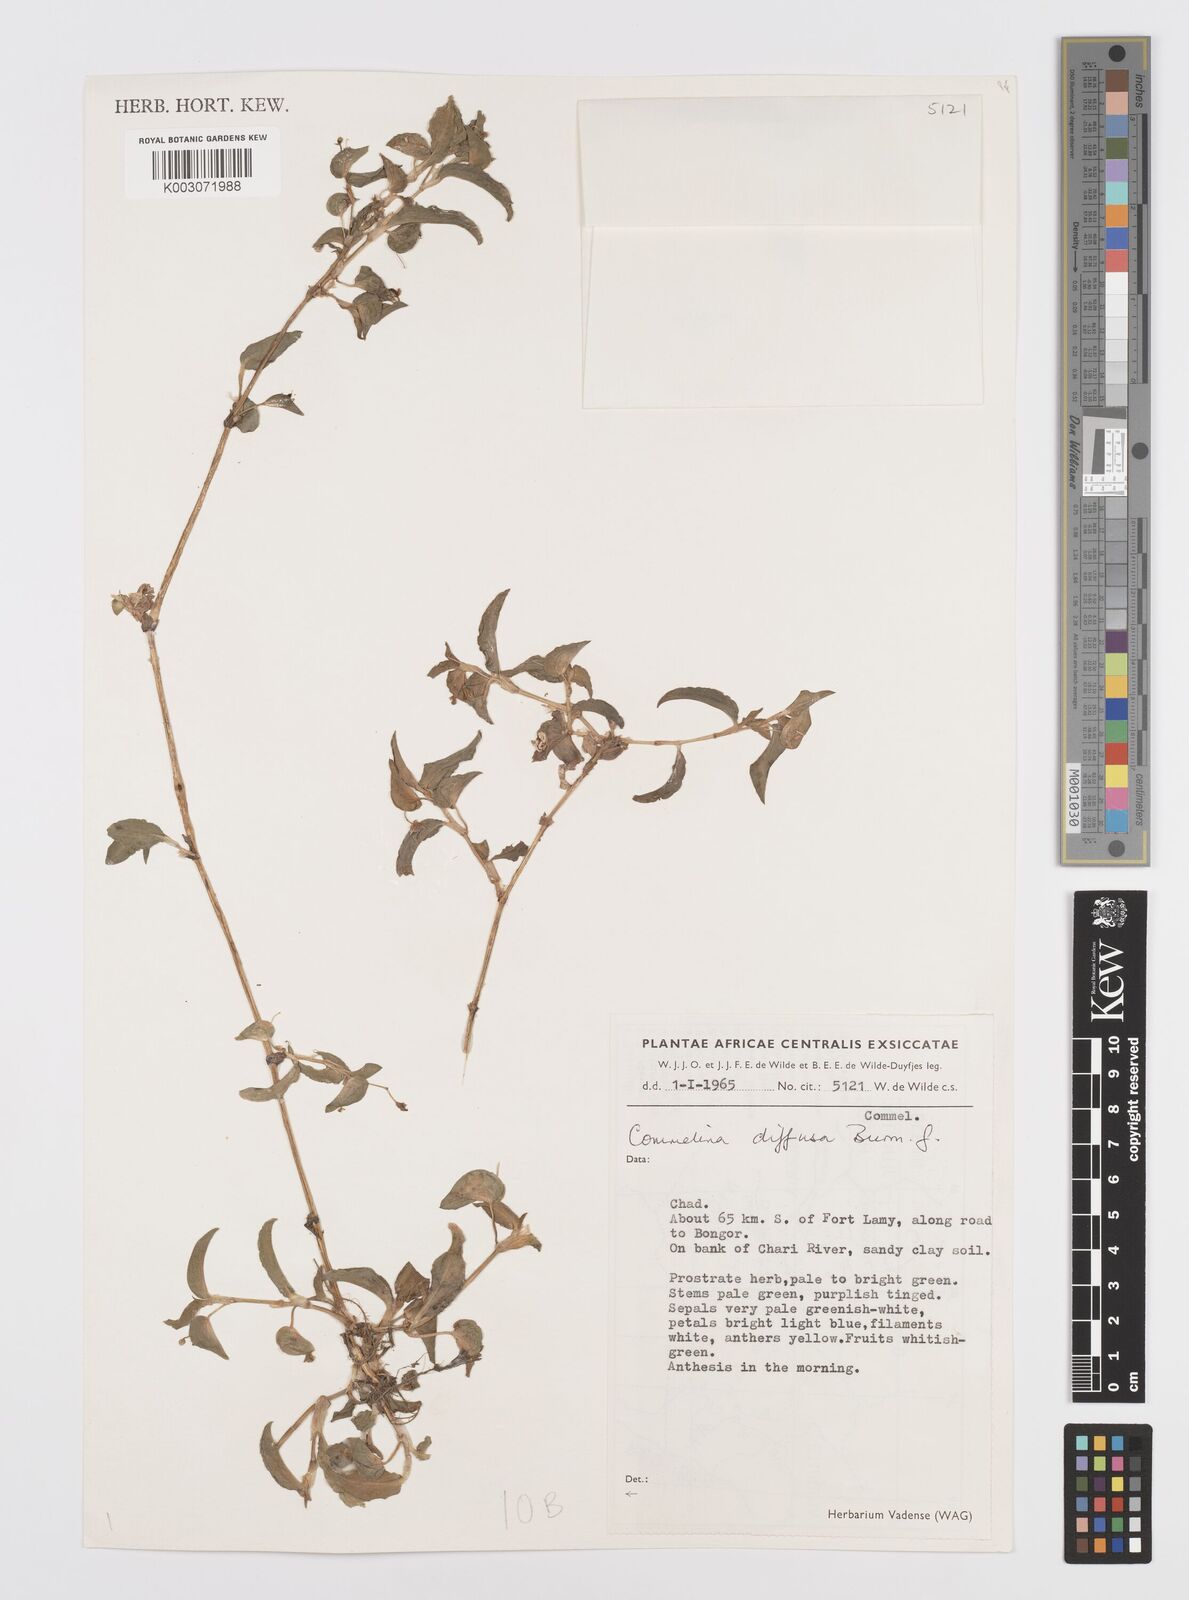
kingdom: Plantae
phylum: Tracheophyta
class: Liliopsida
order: Commelinales
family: Commelinaceae
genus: Commelina
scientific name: Commelina diffusa
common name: Climbing dayflower
